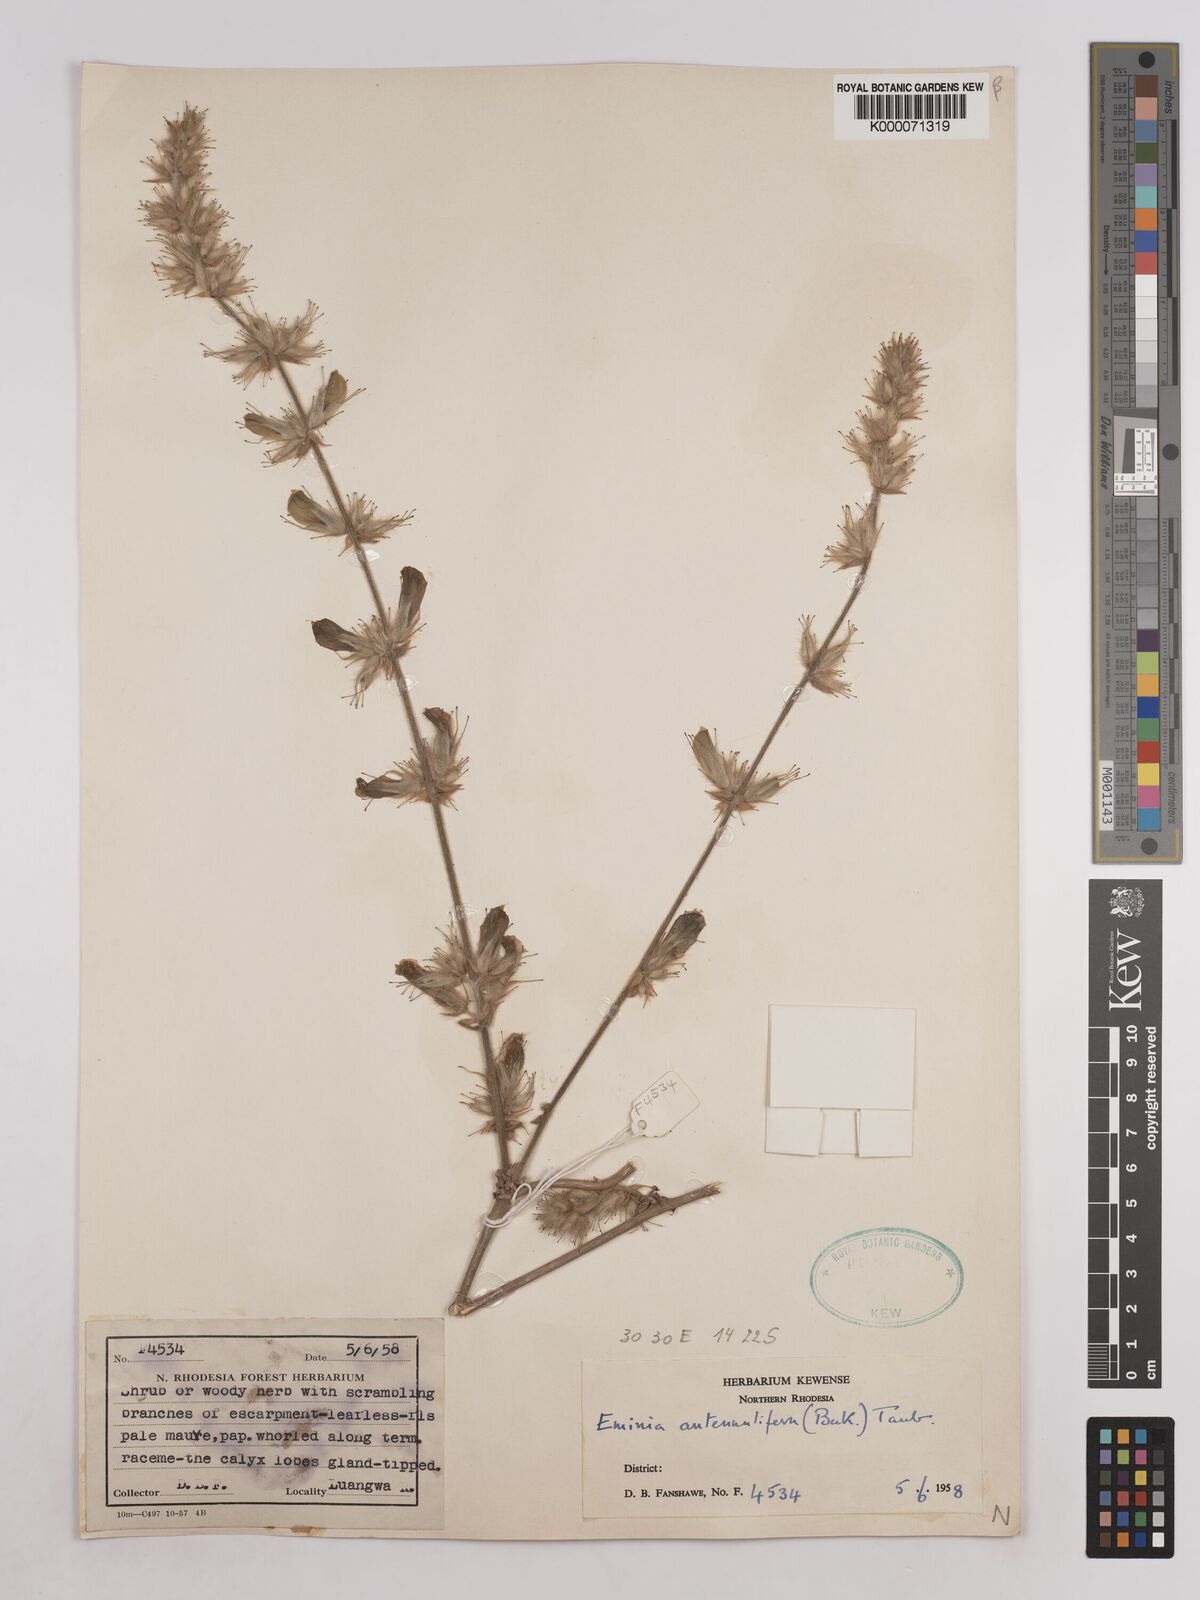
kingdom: Plantae
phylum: Tracheophyta
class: Magnoliopsida
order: Fabales
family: Fabaceae
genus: Eminia
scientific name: Eminia antennulifera
